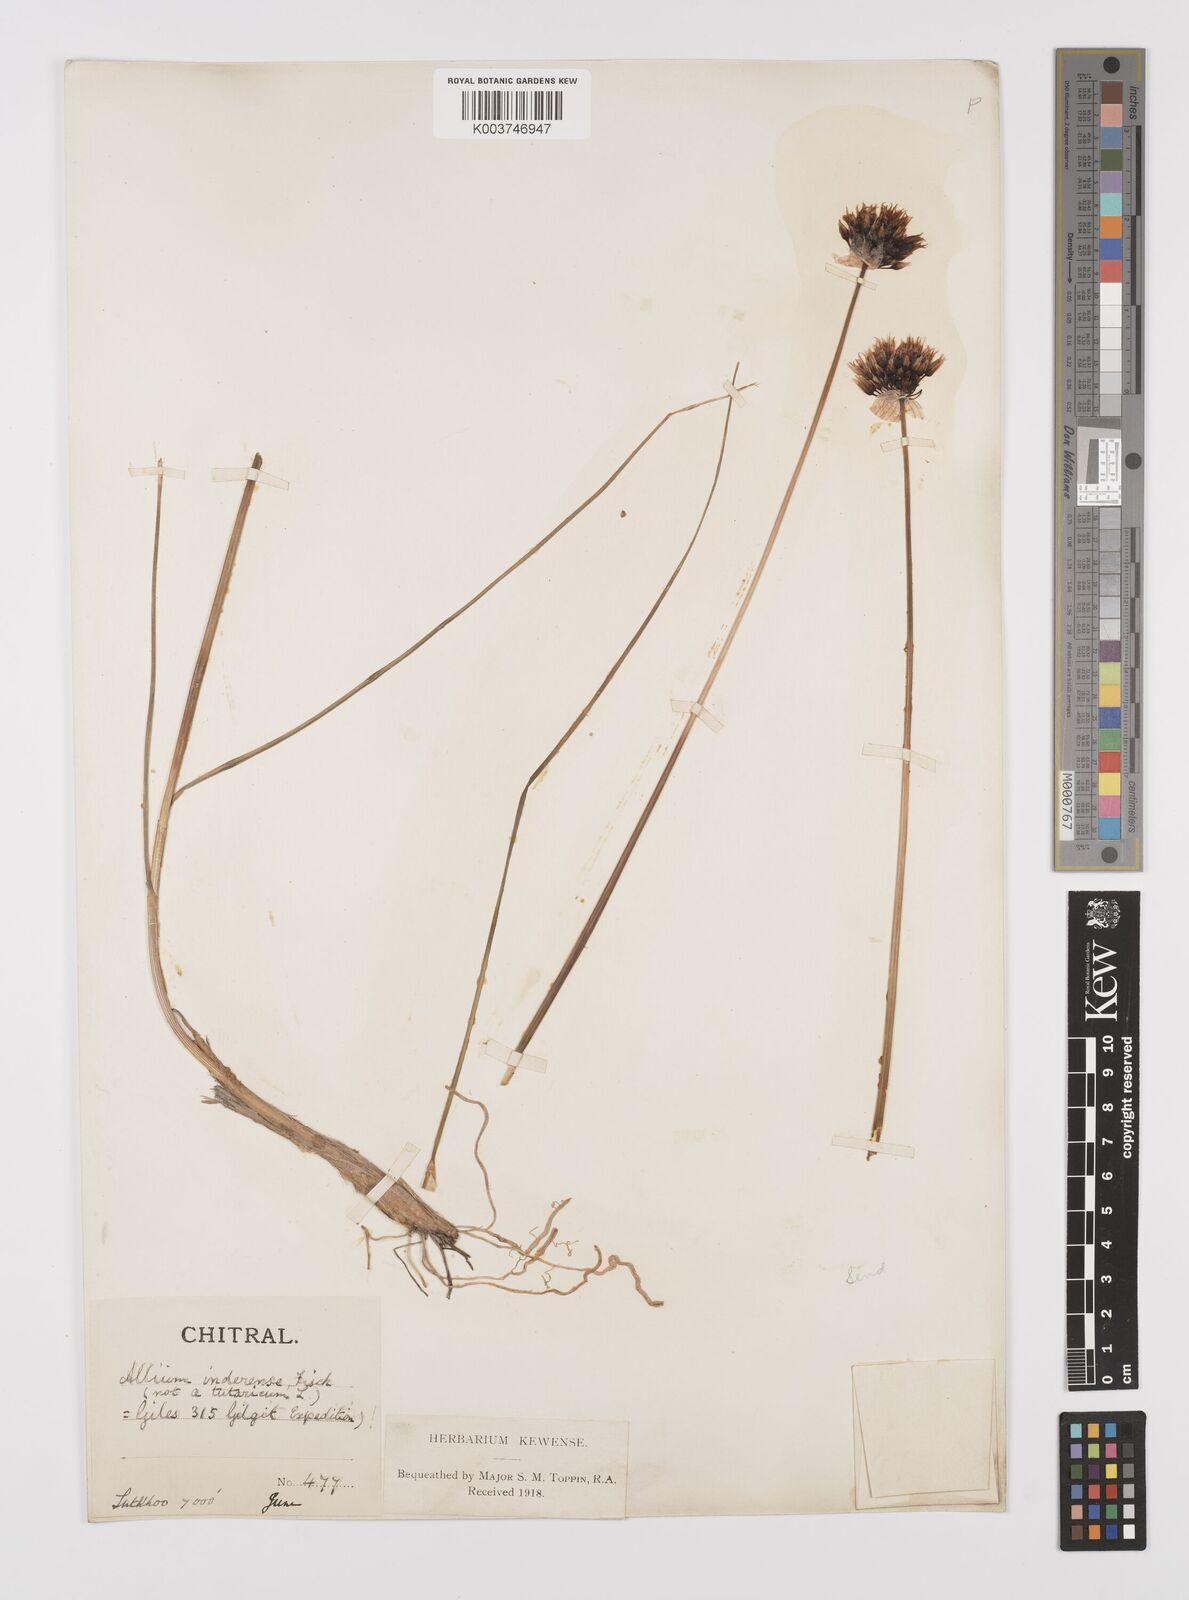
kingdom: Plantae
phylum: Tracheophyta
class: Liliopsida
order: Asparagales
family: Amaryllidaceae
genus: Allium
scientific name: Allium
